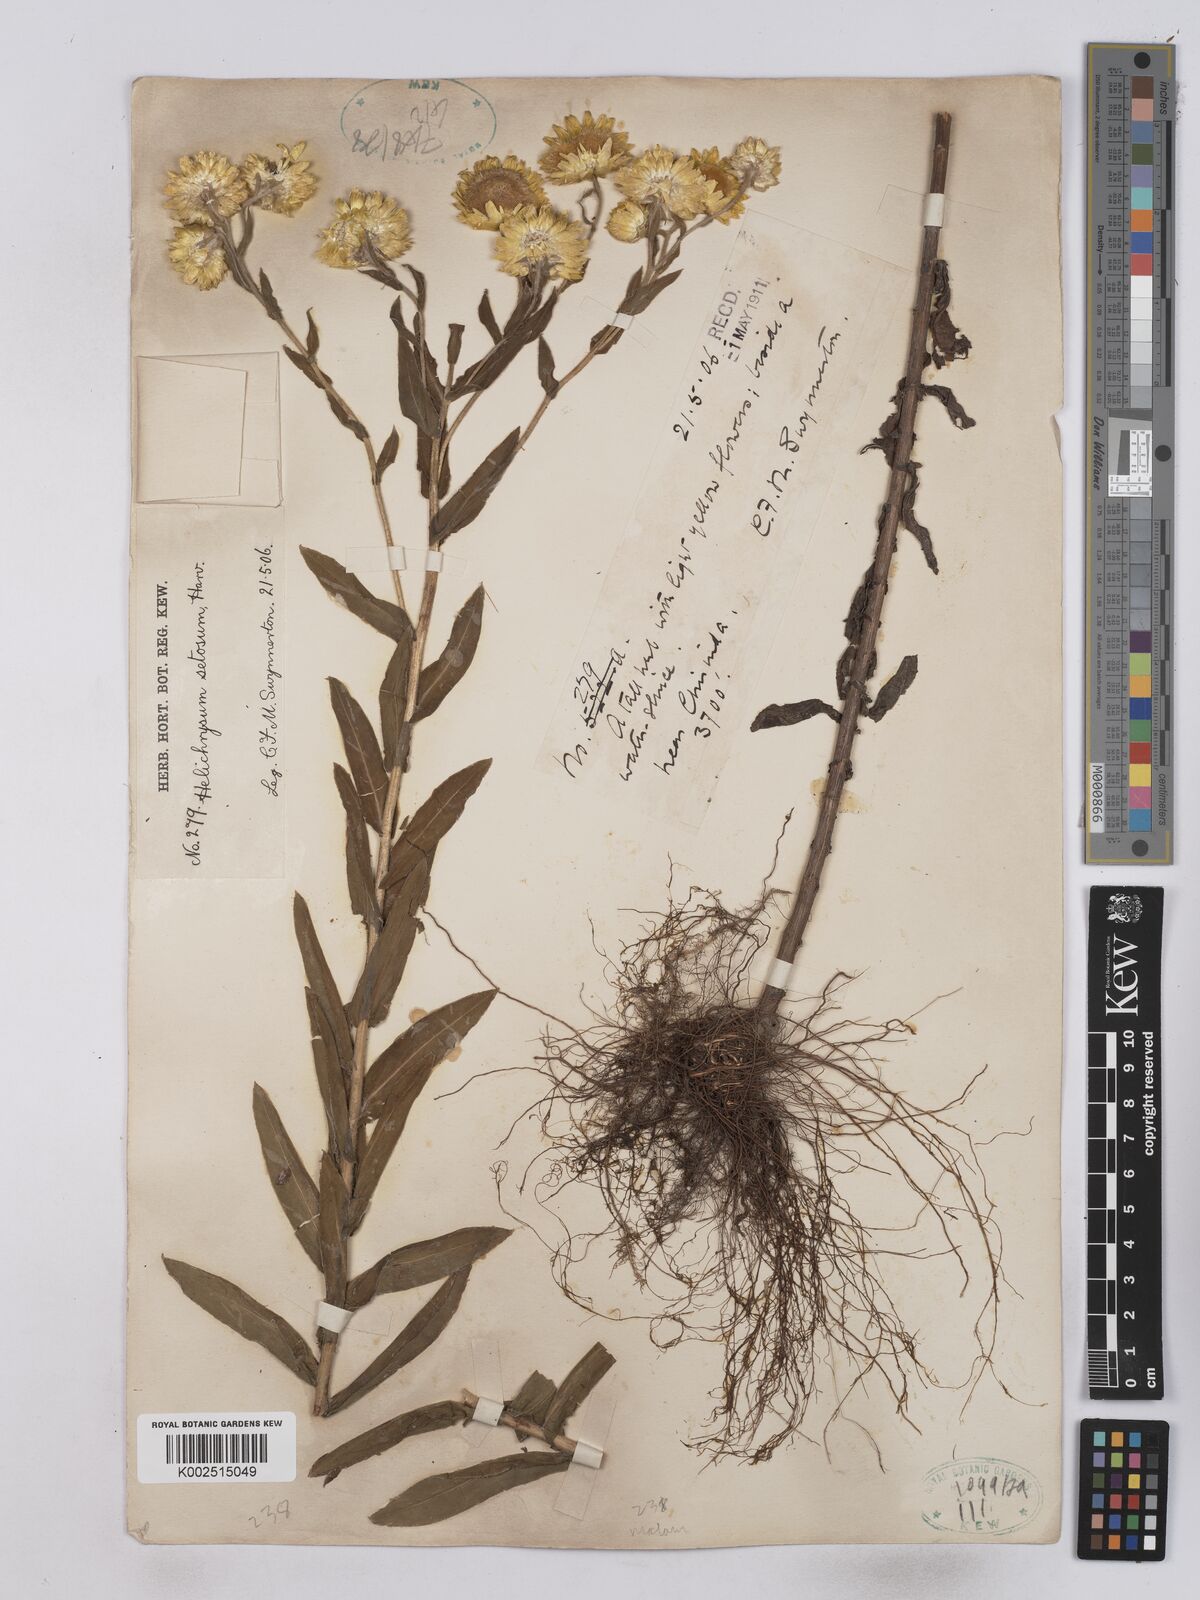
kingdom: Plantae
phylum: Tracheophyta
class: Magnoliopsida
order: Asterales
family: Asteraceae
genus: Helichrysum
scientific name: Helichrysum setosum
